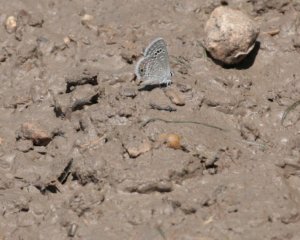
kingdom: Animalia
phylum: Arthropoda
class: Insecta
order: Lepidoptera
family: Lycaenidae
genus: Echinargus
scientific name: Echinargus isola
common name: Reakirt's Blue
